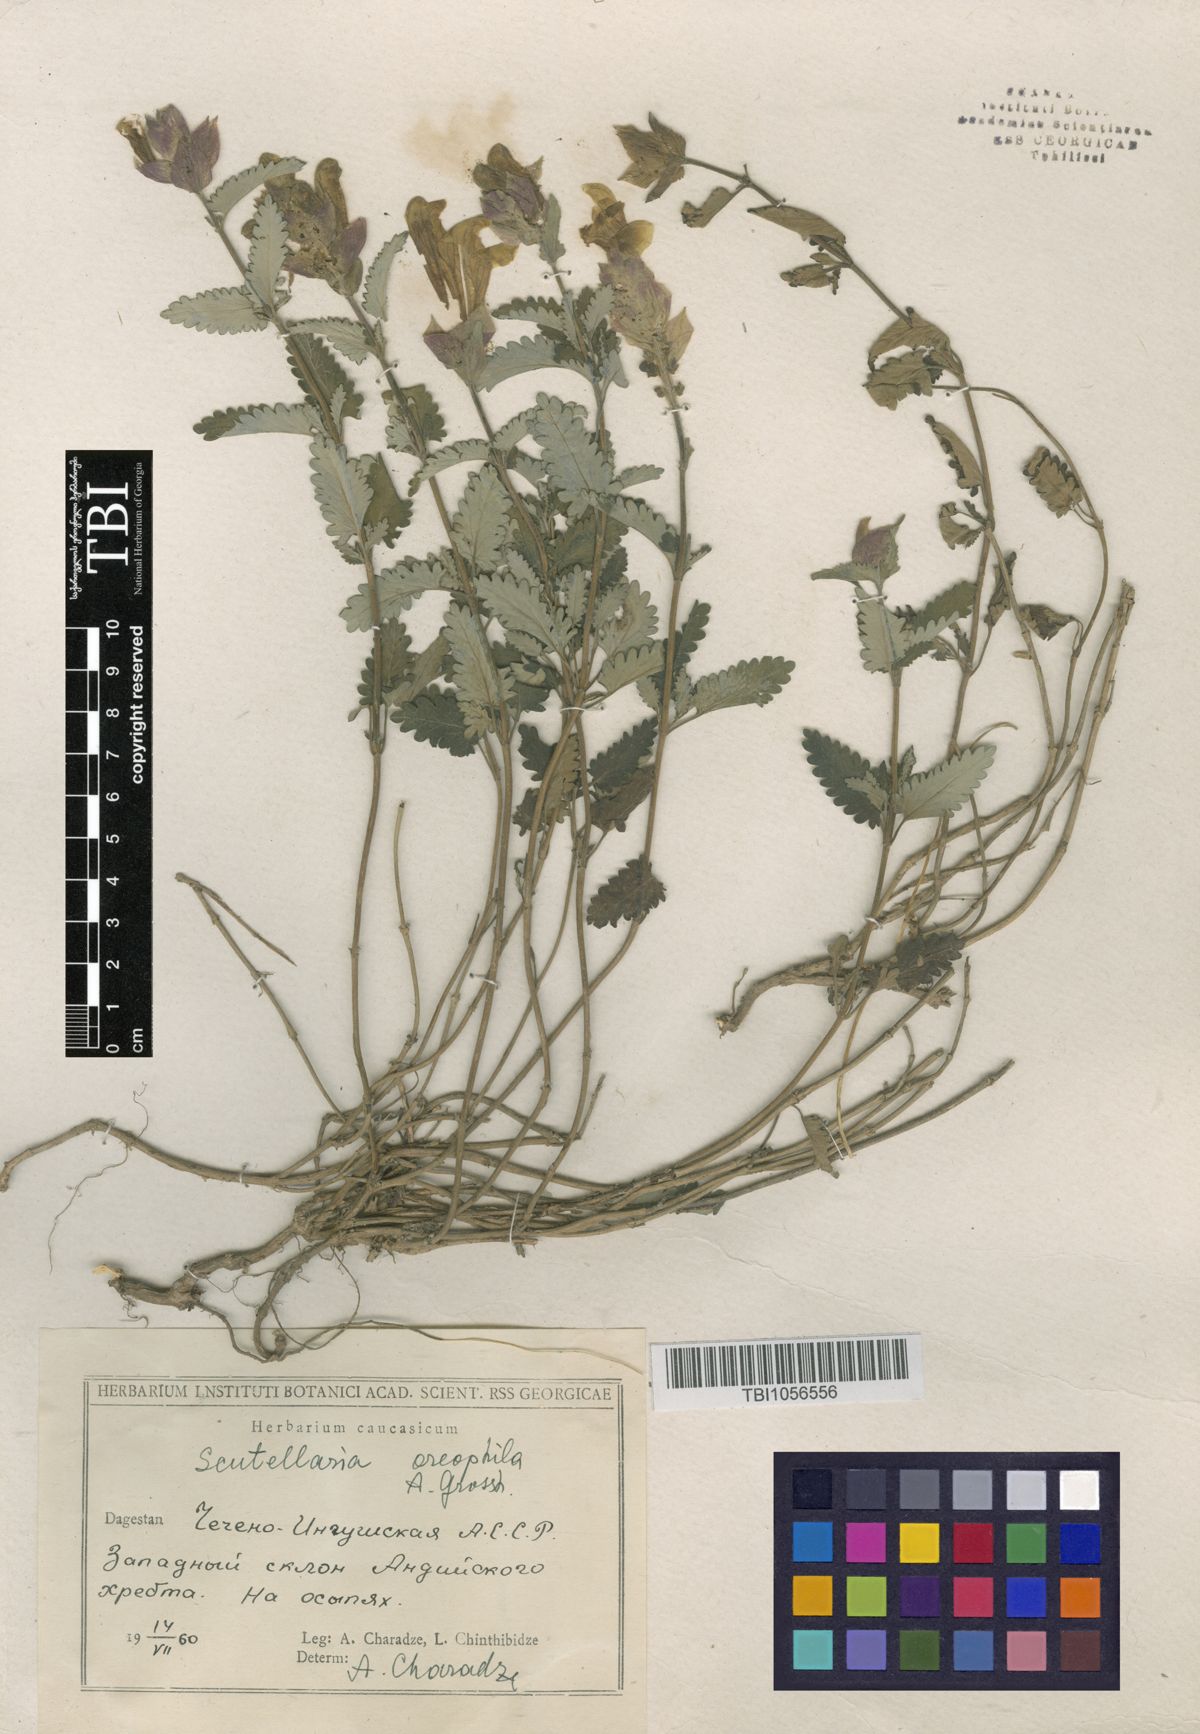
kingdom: Plantae
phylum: Tracheophyta
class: Magnoliopsida
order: Lamiales
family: Lamiaceae
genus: Scutellaria
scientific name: Scutellaria oreophila
